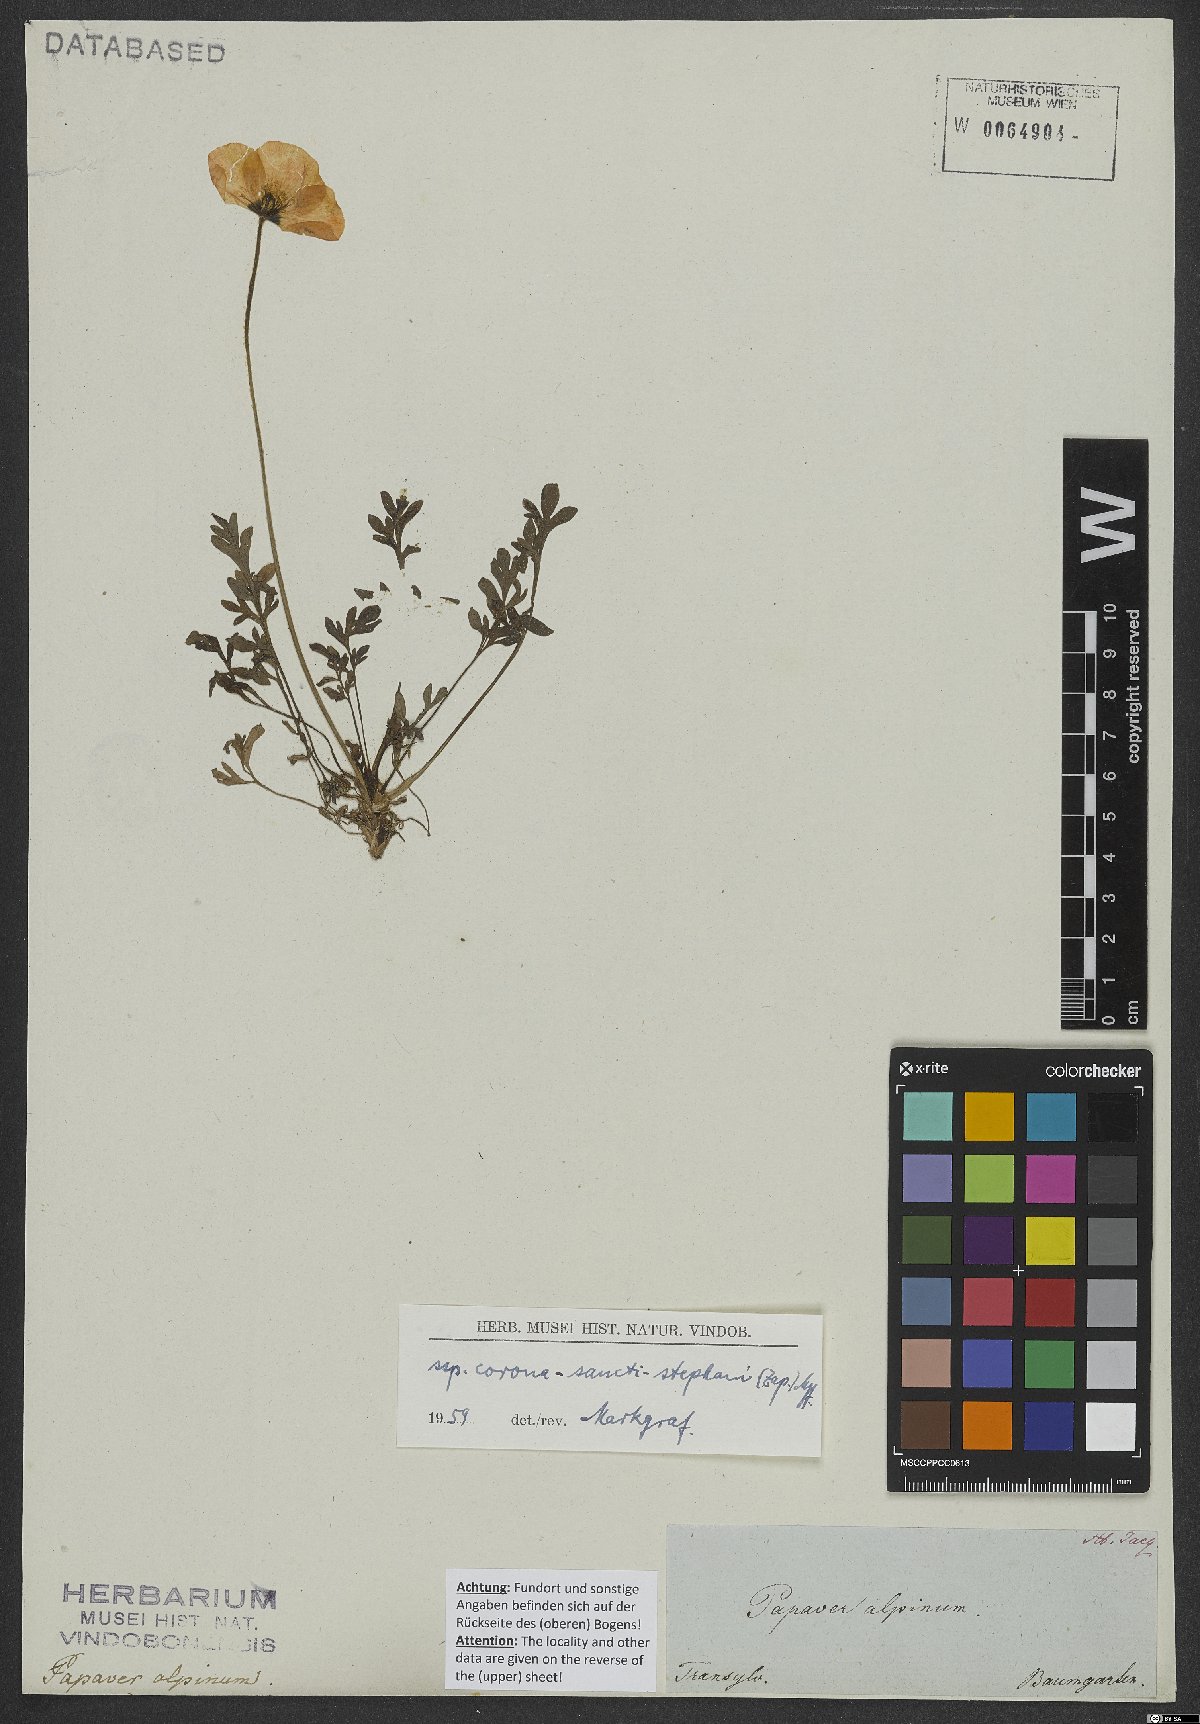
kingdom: Plantae
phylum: Tracheophyta
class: Magnoliopsida
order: Ranunculales
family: Papaveraceae
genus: Papaver
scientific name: Papaver alpinum
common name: Austrian poppy
